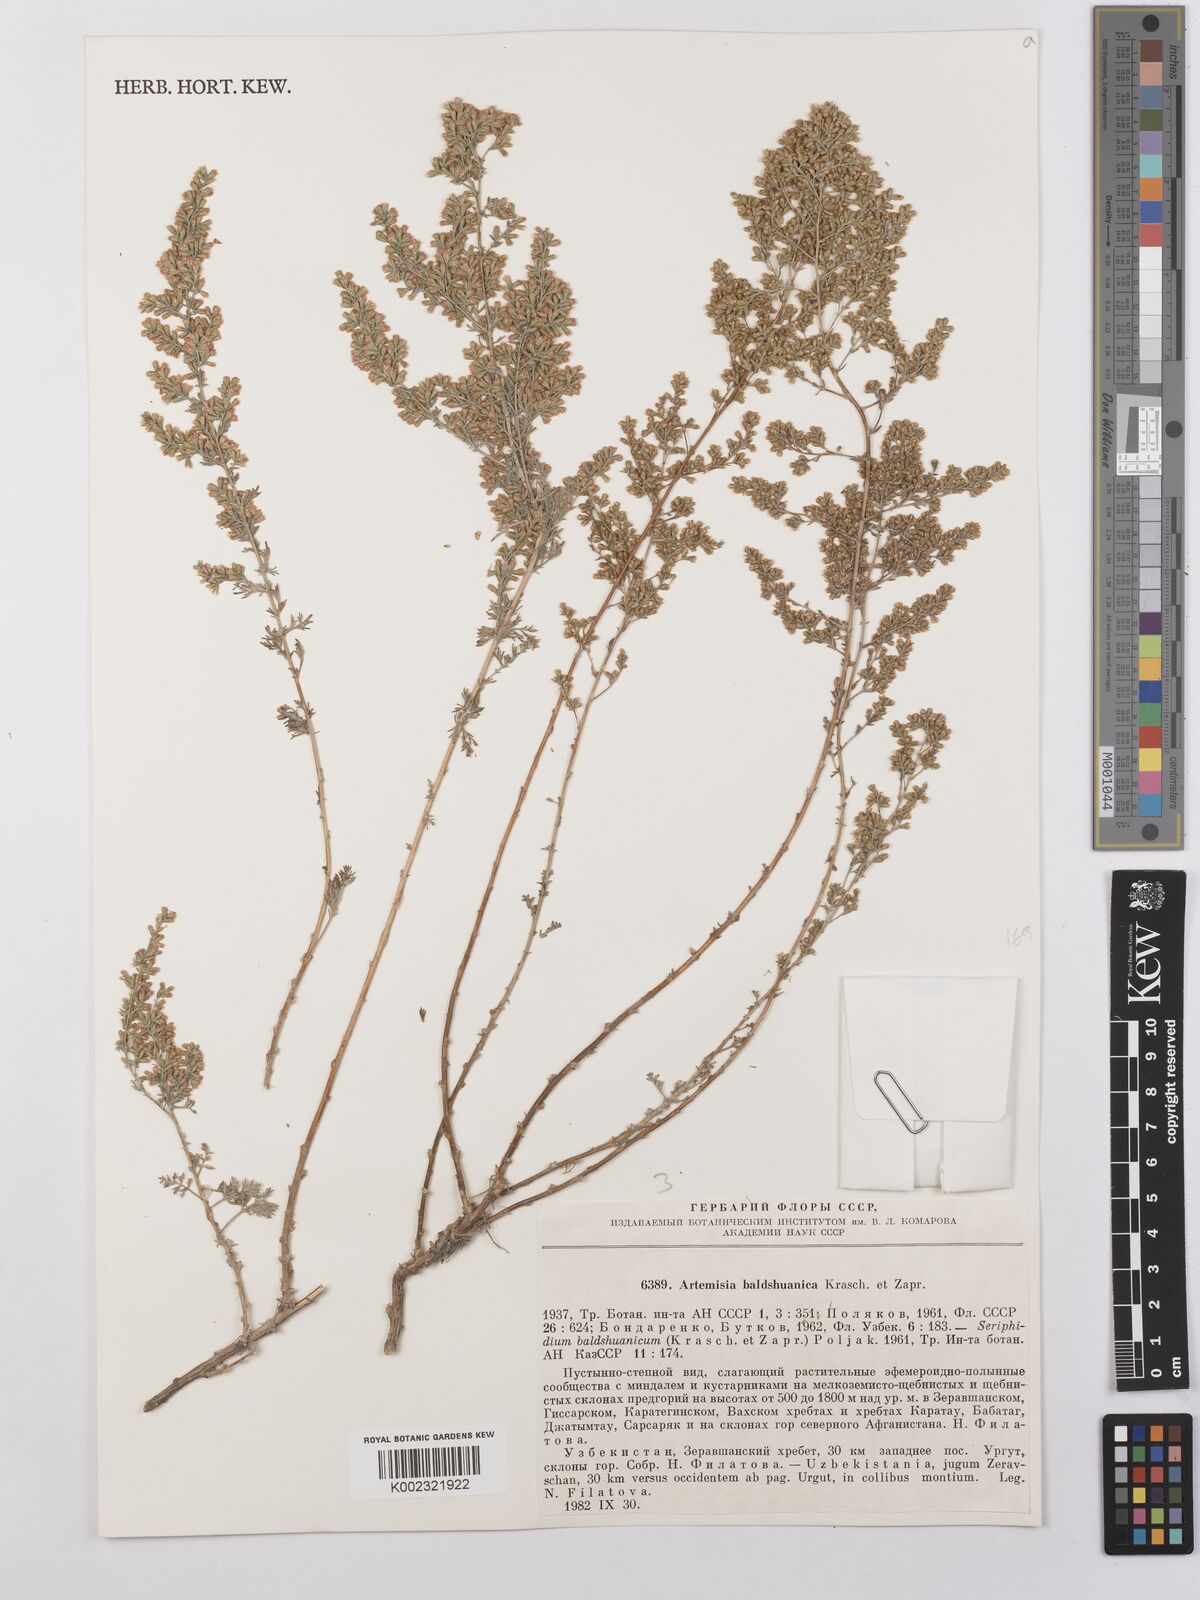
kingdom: Plantae
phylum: Tracheophyta
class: Magnoliopsida
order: Asterales
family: Asteraceae
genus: Artemisia
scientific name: Artemisia baldshuanica
